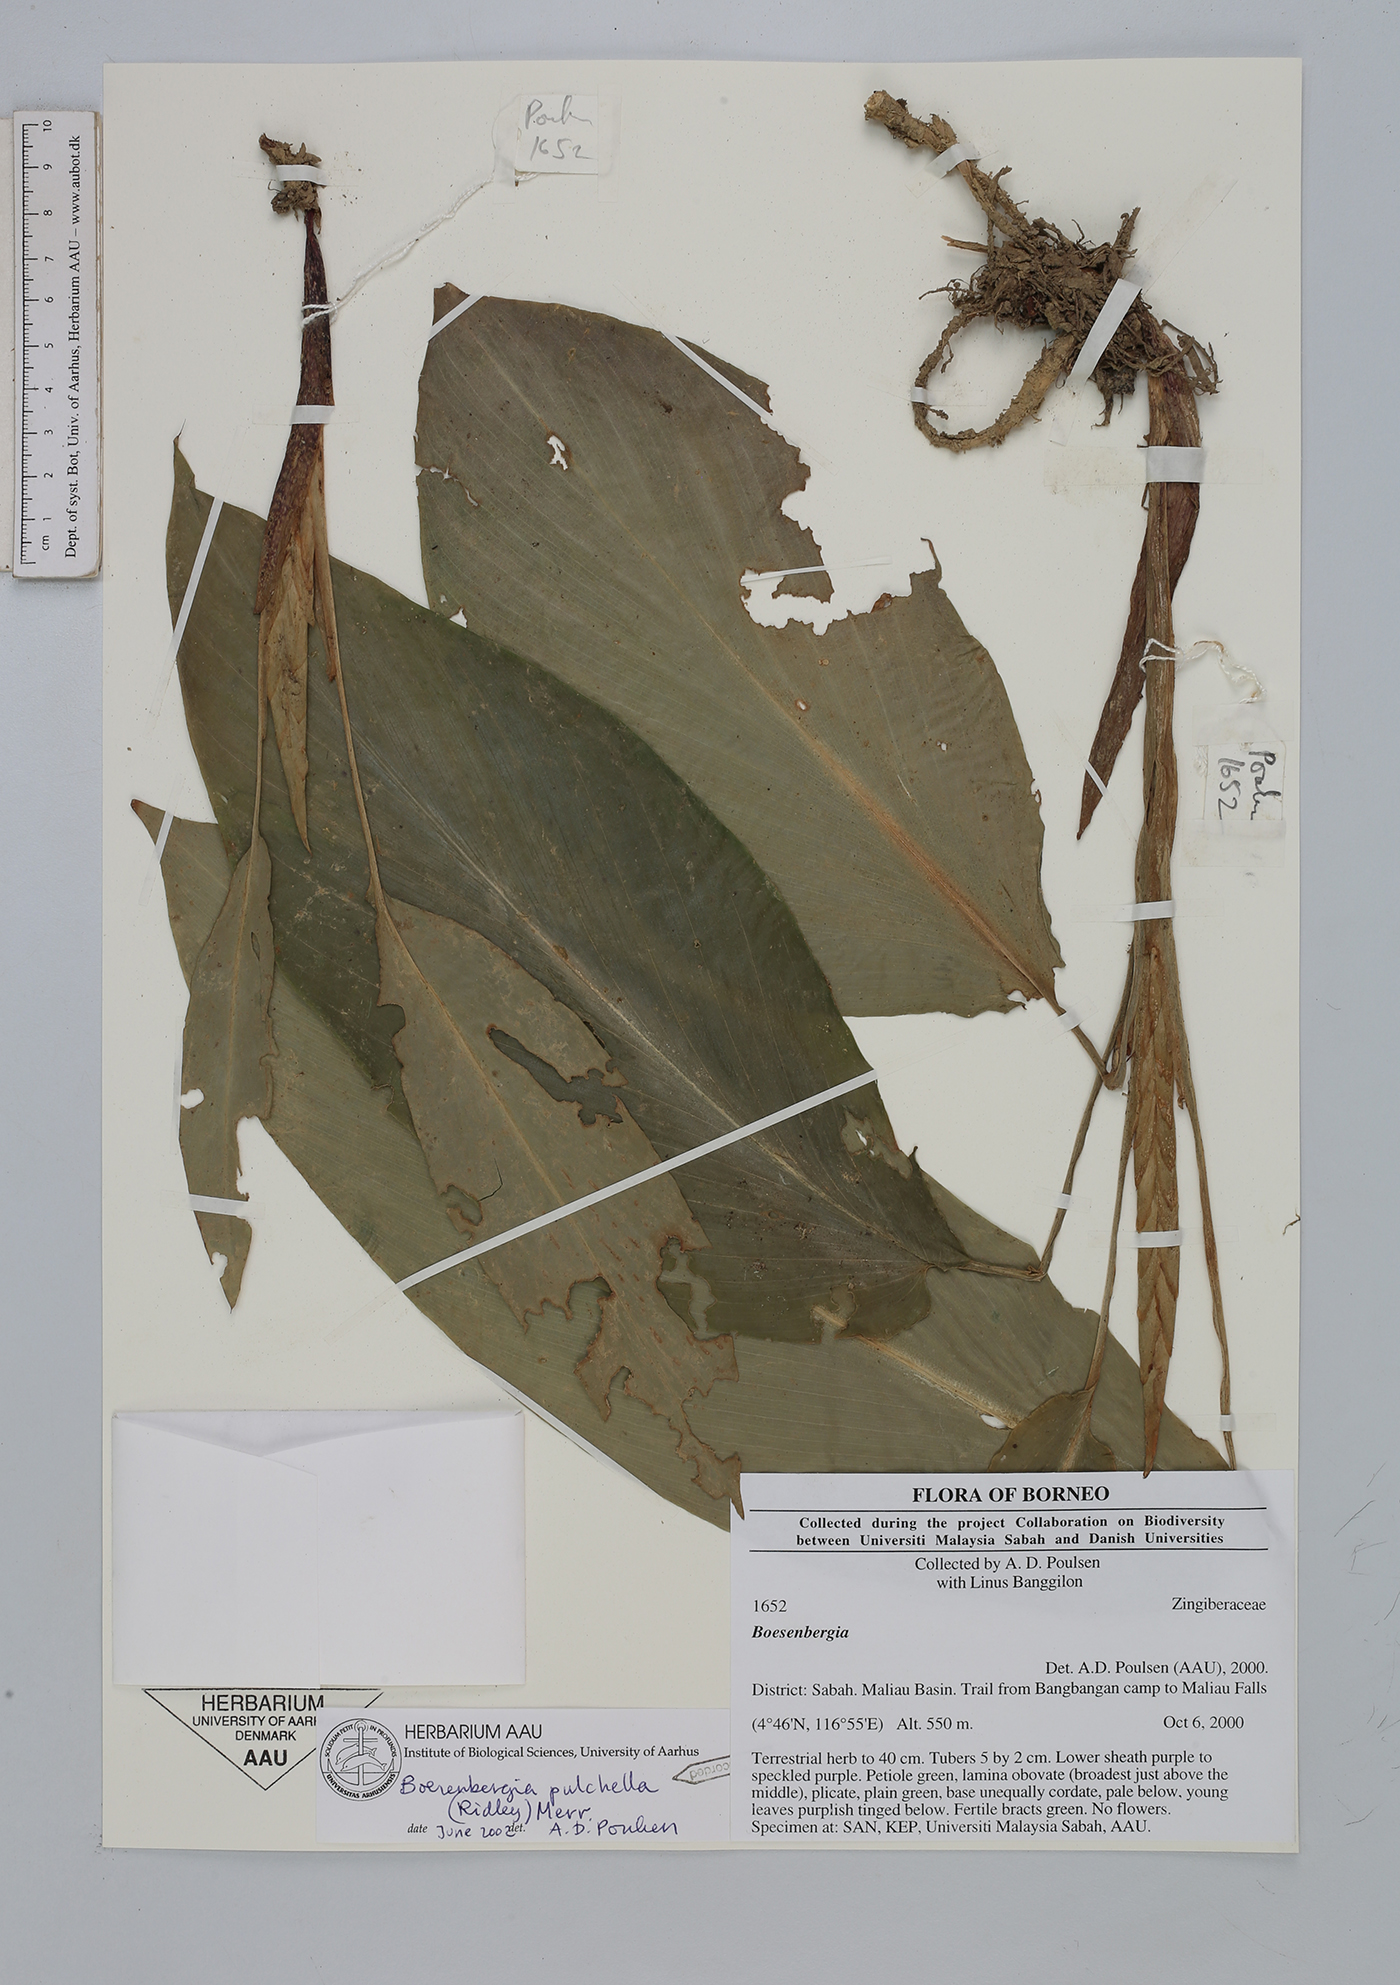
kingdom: Plantae
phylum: Tracheophyta
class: Liliopsida
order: Zingiberales
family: Zingiberaceae
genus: Boesenbergia
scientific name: Boesenbergia pulchella
